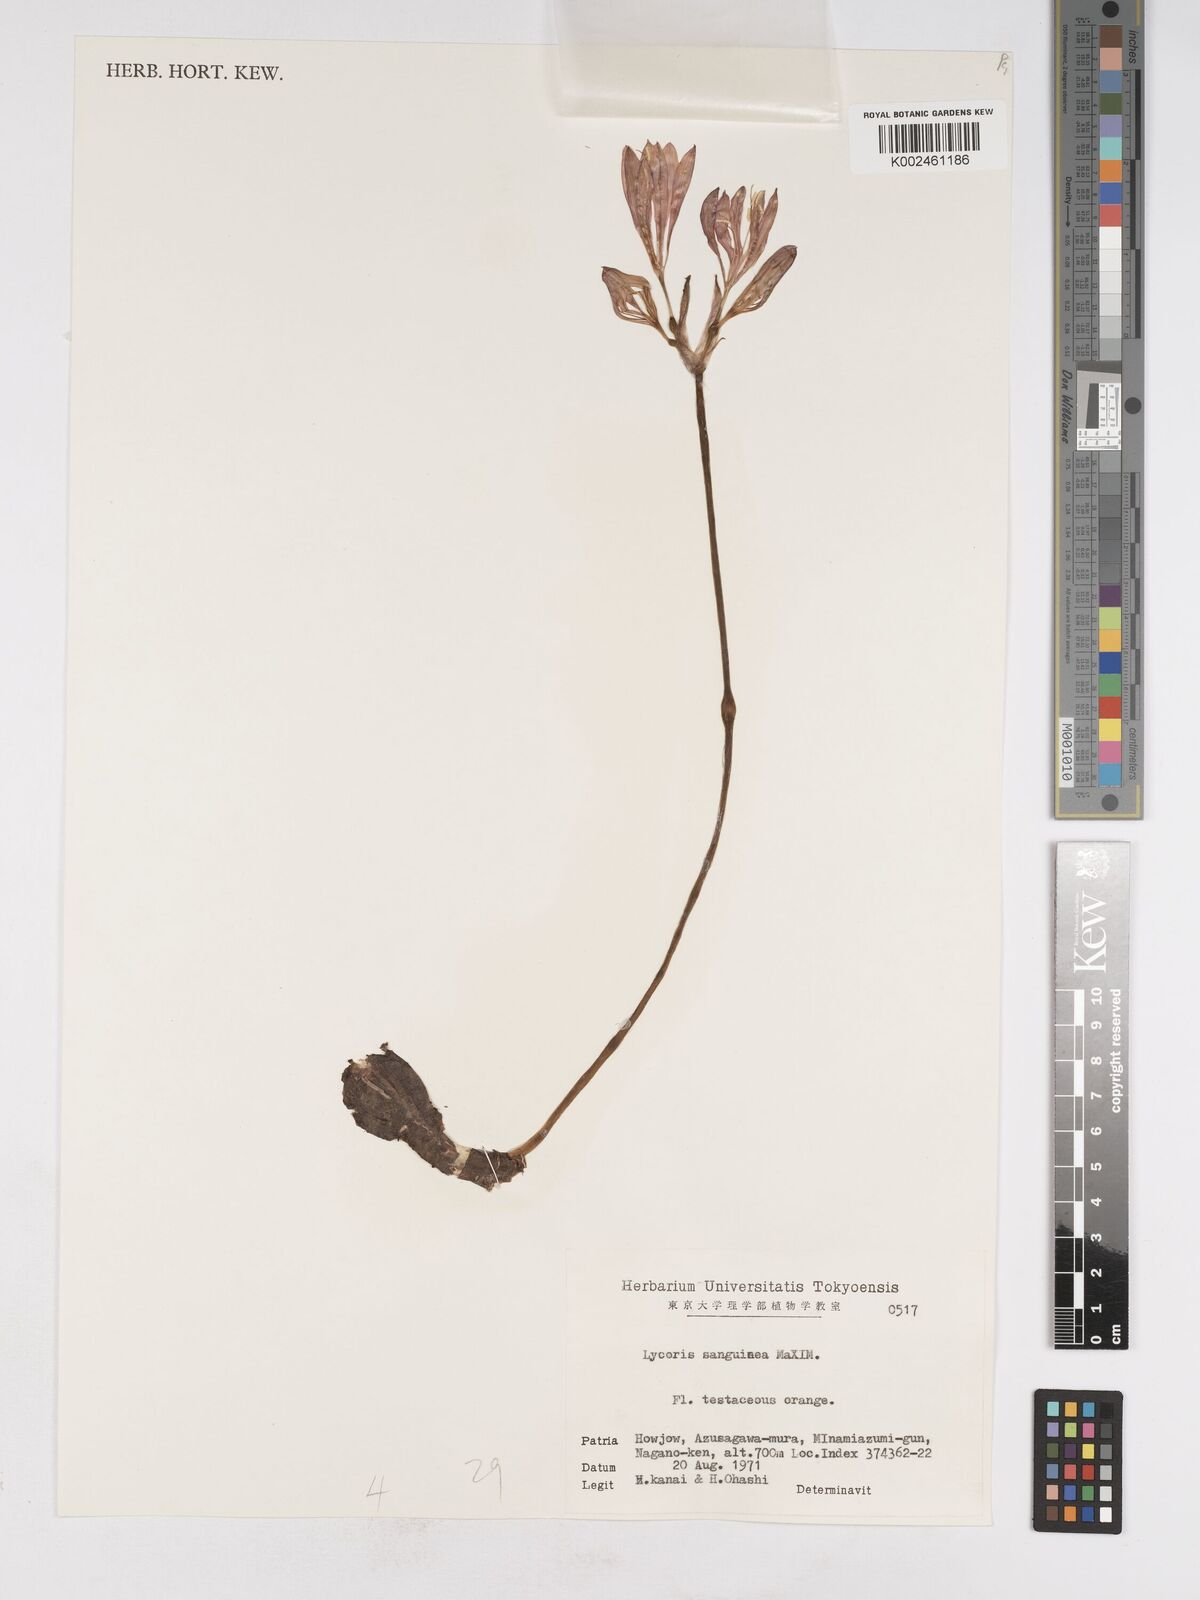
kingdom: Plantae
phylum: Tracheophyta
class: Liliopsida
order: Asparagales
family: Amaryllidaceae
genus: Lycoris
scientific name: Lycoris sanguinea
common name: Spider-lily
